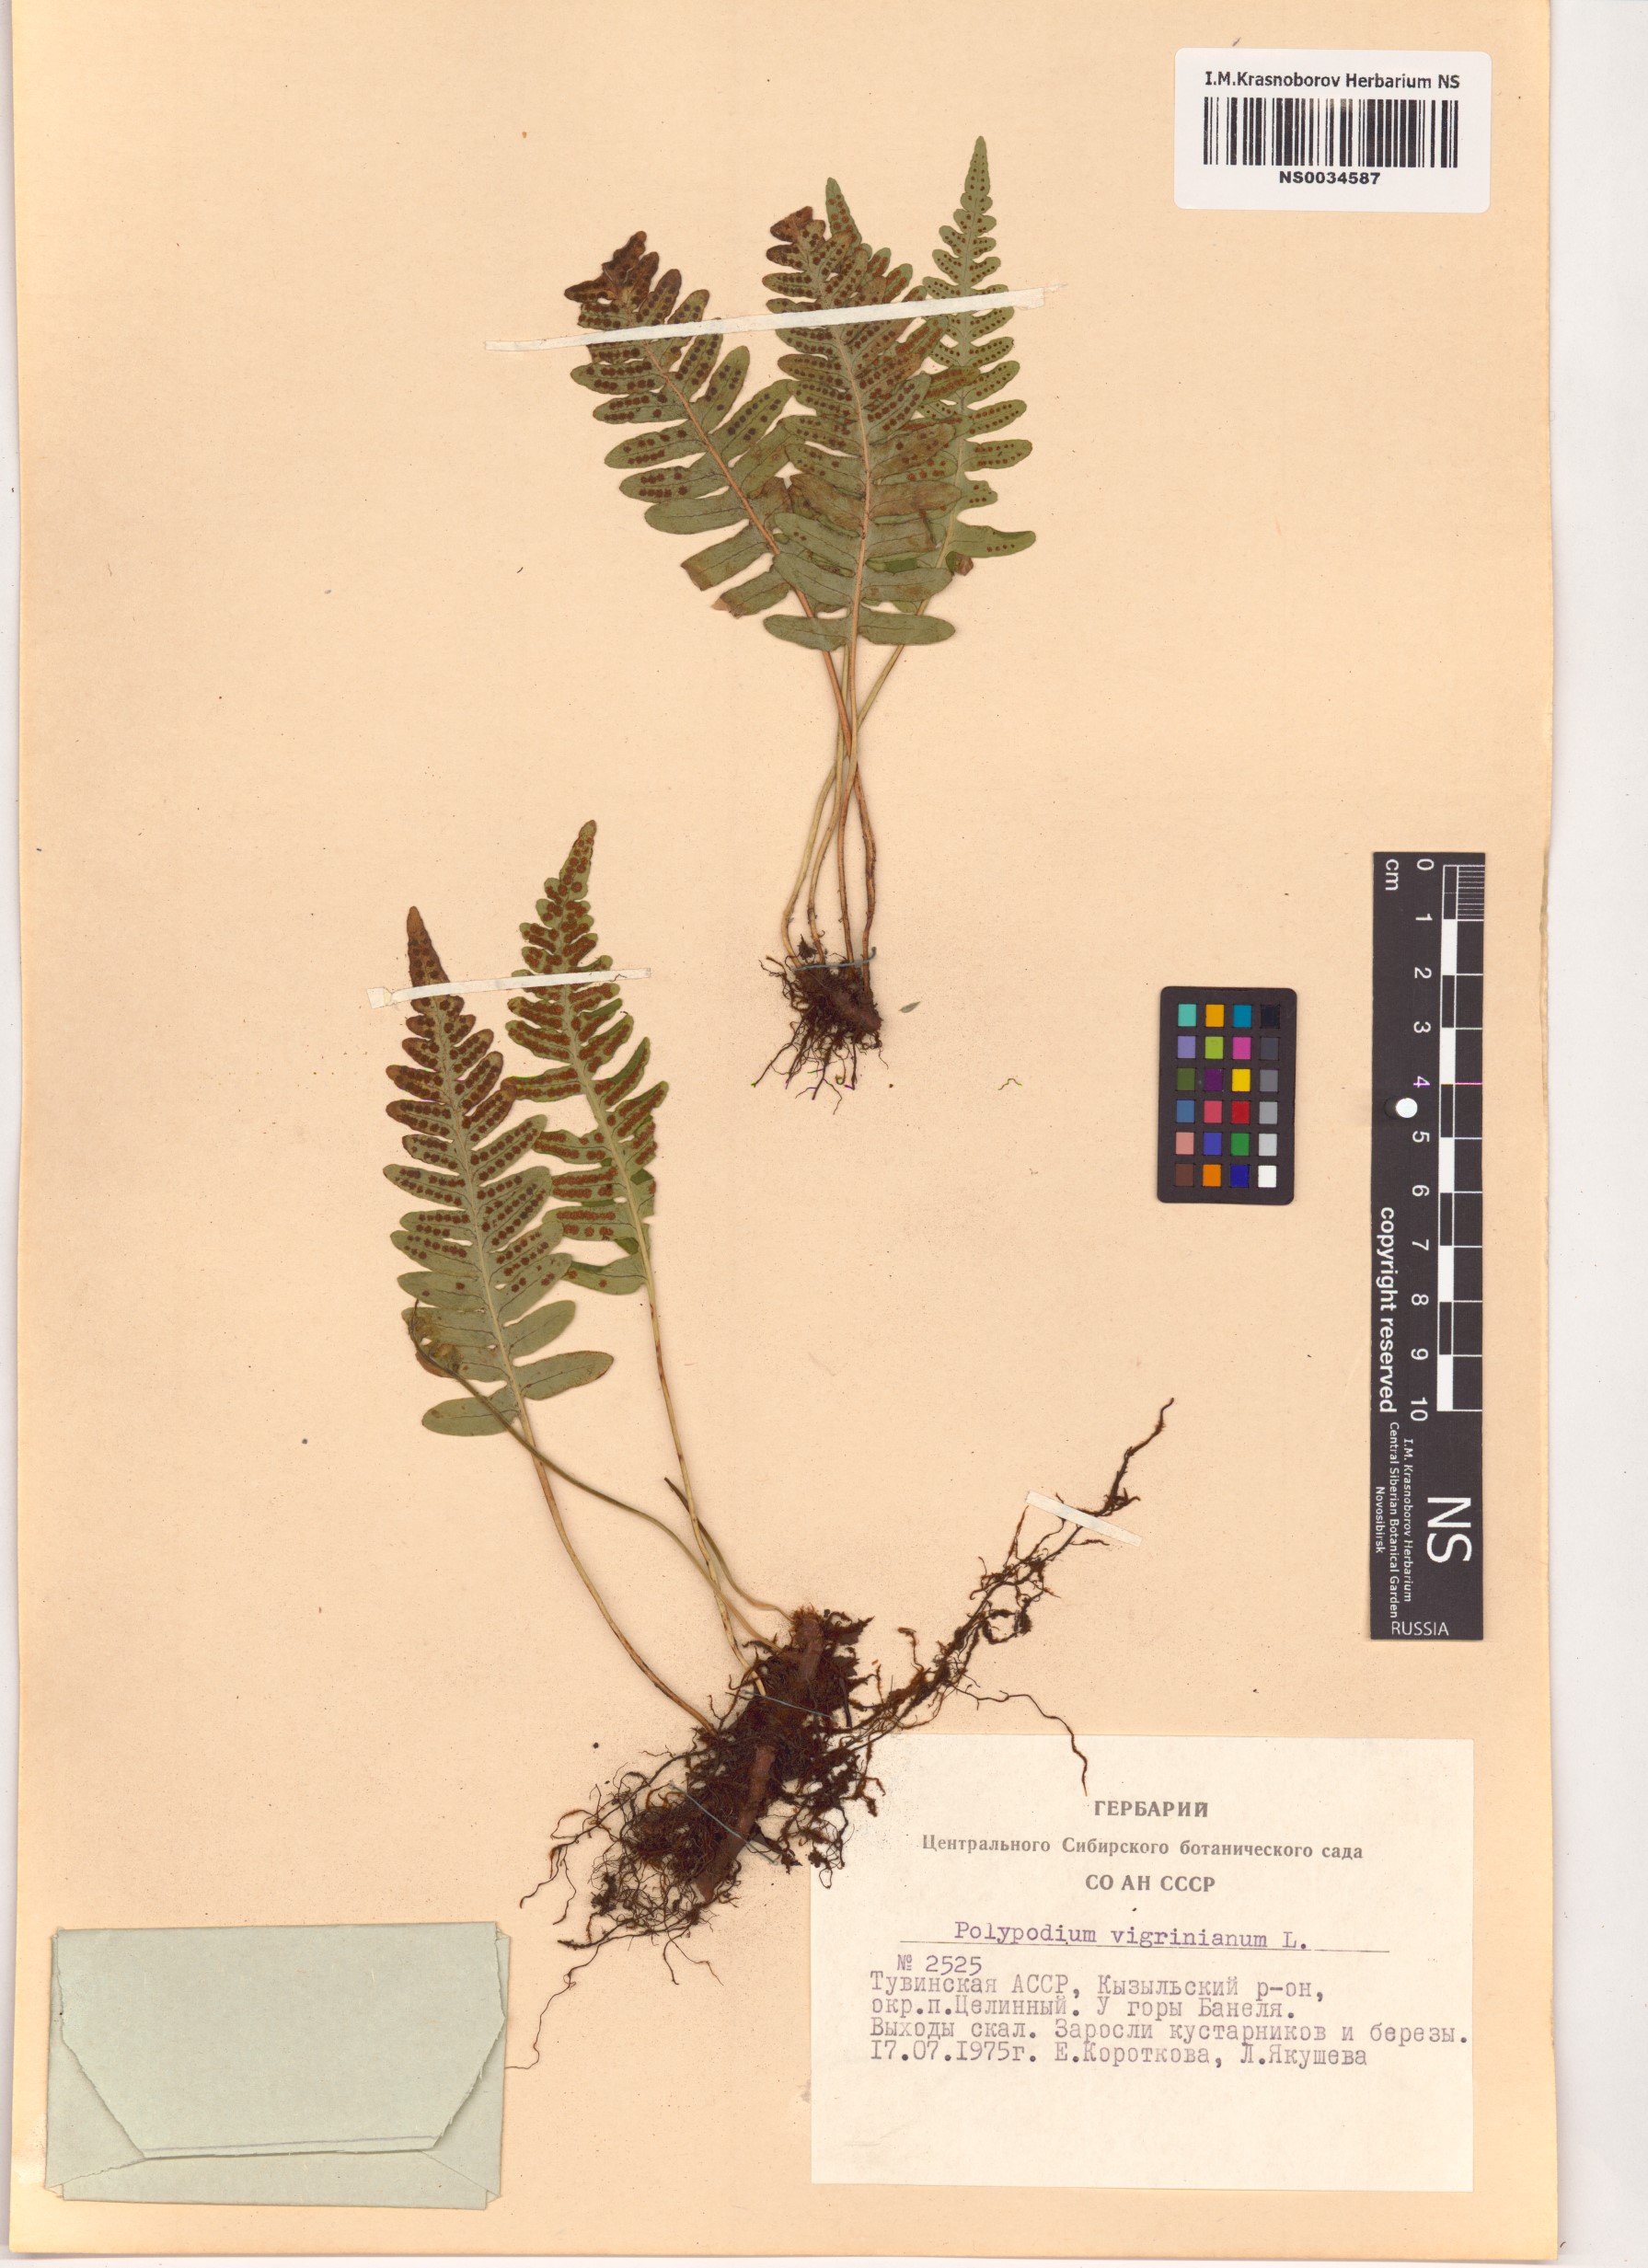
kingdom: Plantae
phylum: Tracheophyta
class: Polypodiopsida
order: Polypodiales
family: Polypodiaceae
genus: Polypodium
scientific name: Polypodium virginianum
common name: American wall fern
